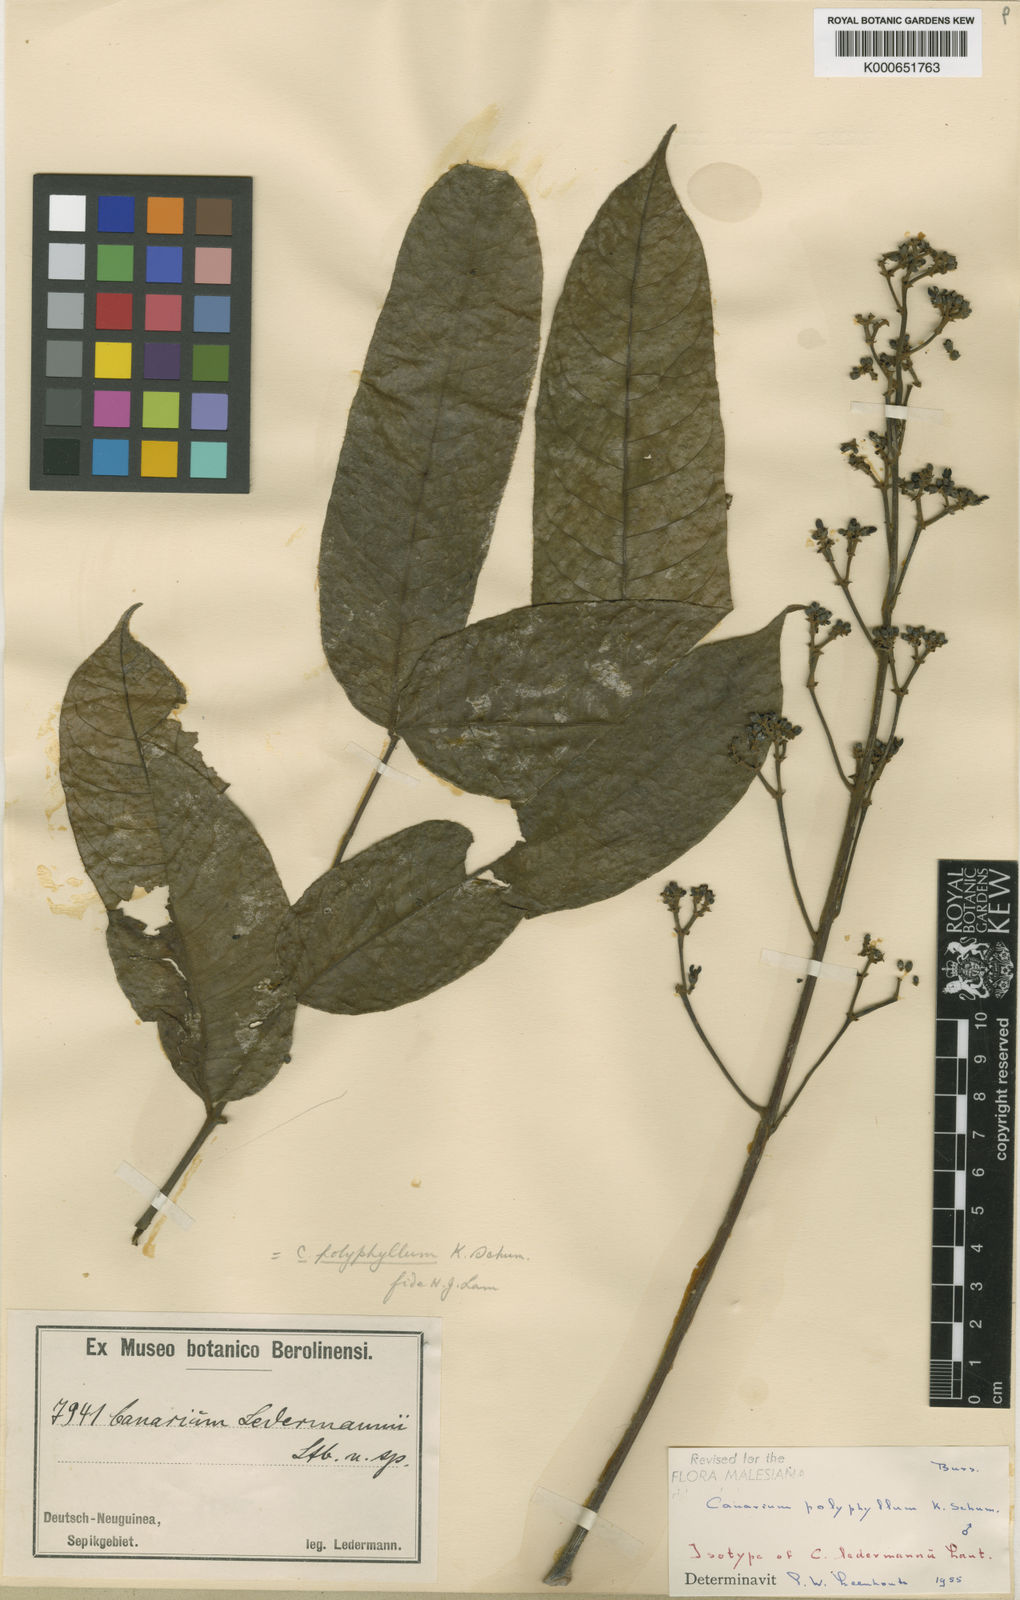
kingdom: Plantae
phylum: Tracheophyta
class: Magnoliopsida
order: Sapindales
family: Burseraceae
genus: Canarium
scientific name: Canarium polyphyllum
